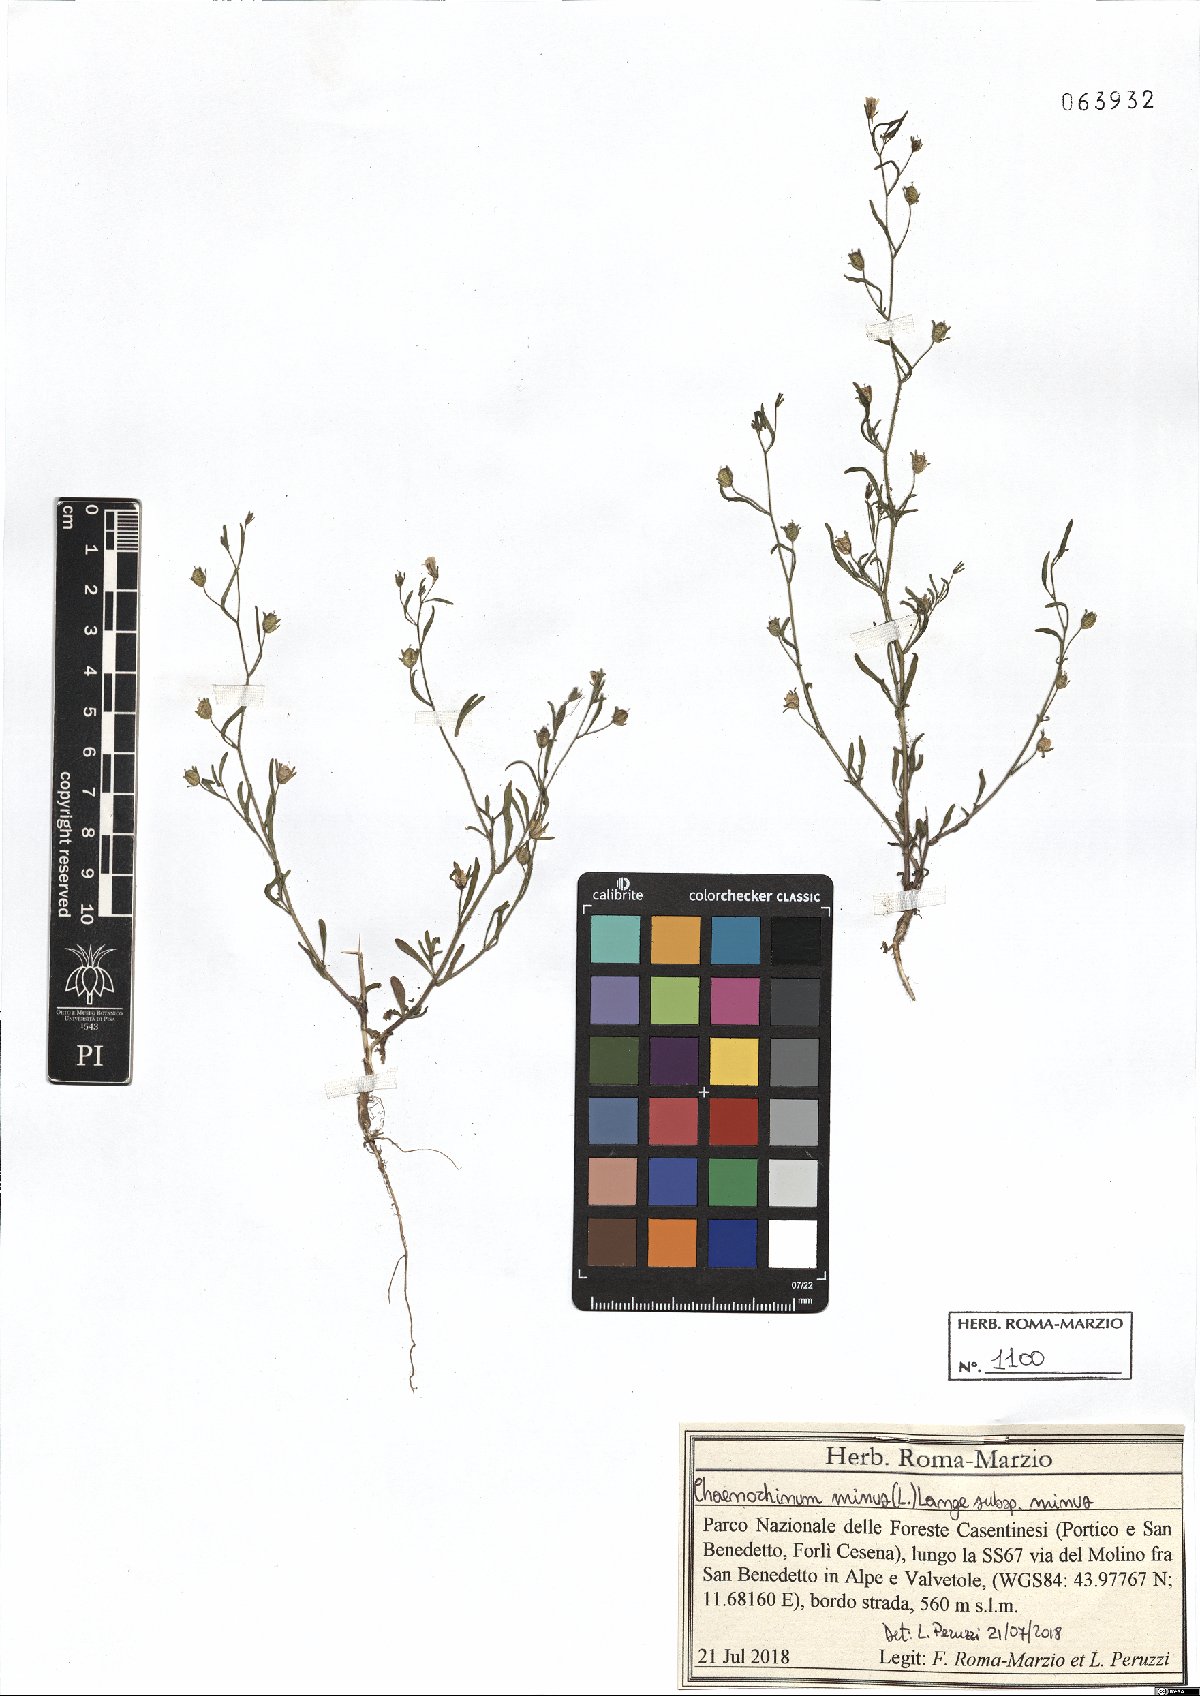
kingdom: Plantae
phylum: Tracheophyta
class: Magnoliopsida
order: Lamiales
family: Plantaginaceae
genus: Chaenorhinum
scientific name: Chaenorhinum minus
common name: Dwarf snapdragon
